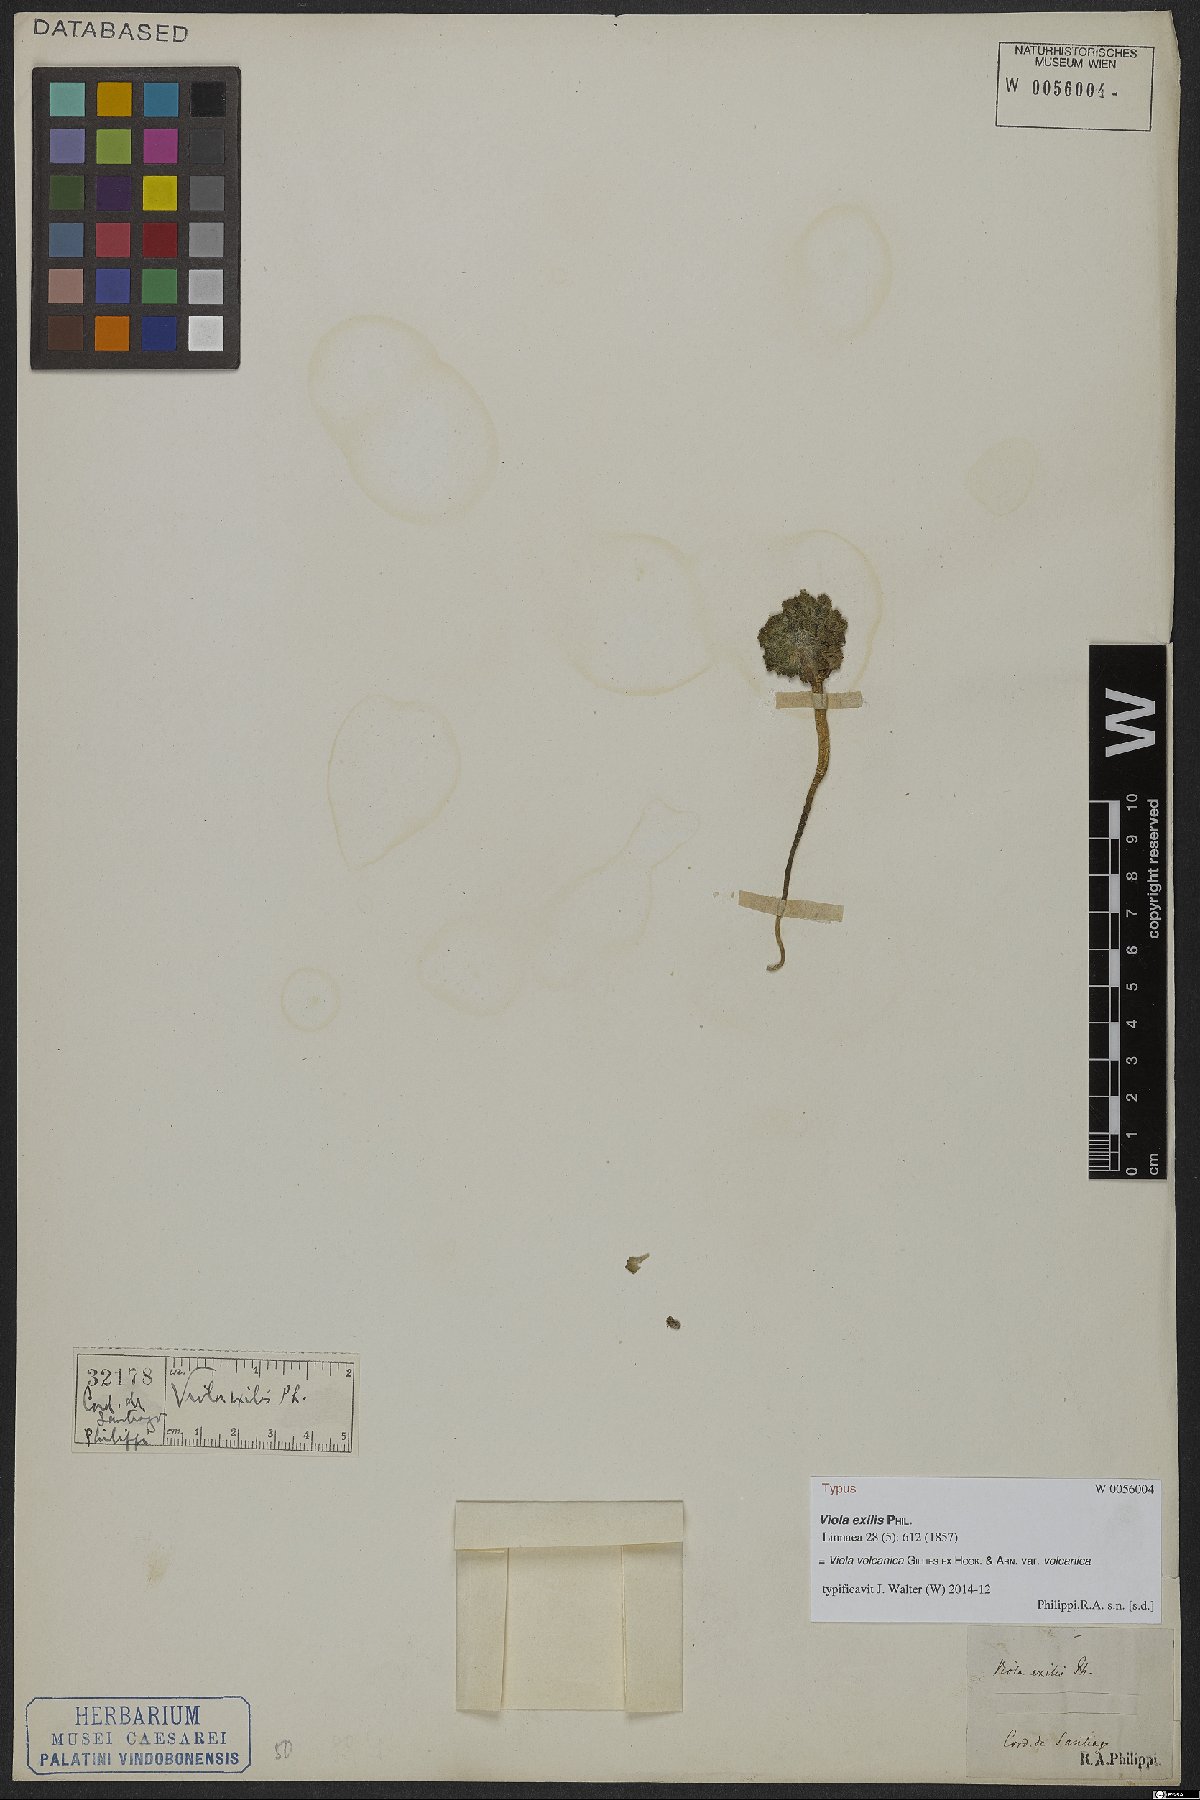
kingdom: Plantae
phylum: Tracheophyta
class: Magnoliopsida
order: Malpighiales
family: Violaceae
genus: Viola
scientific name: Viola volcanica
